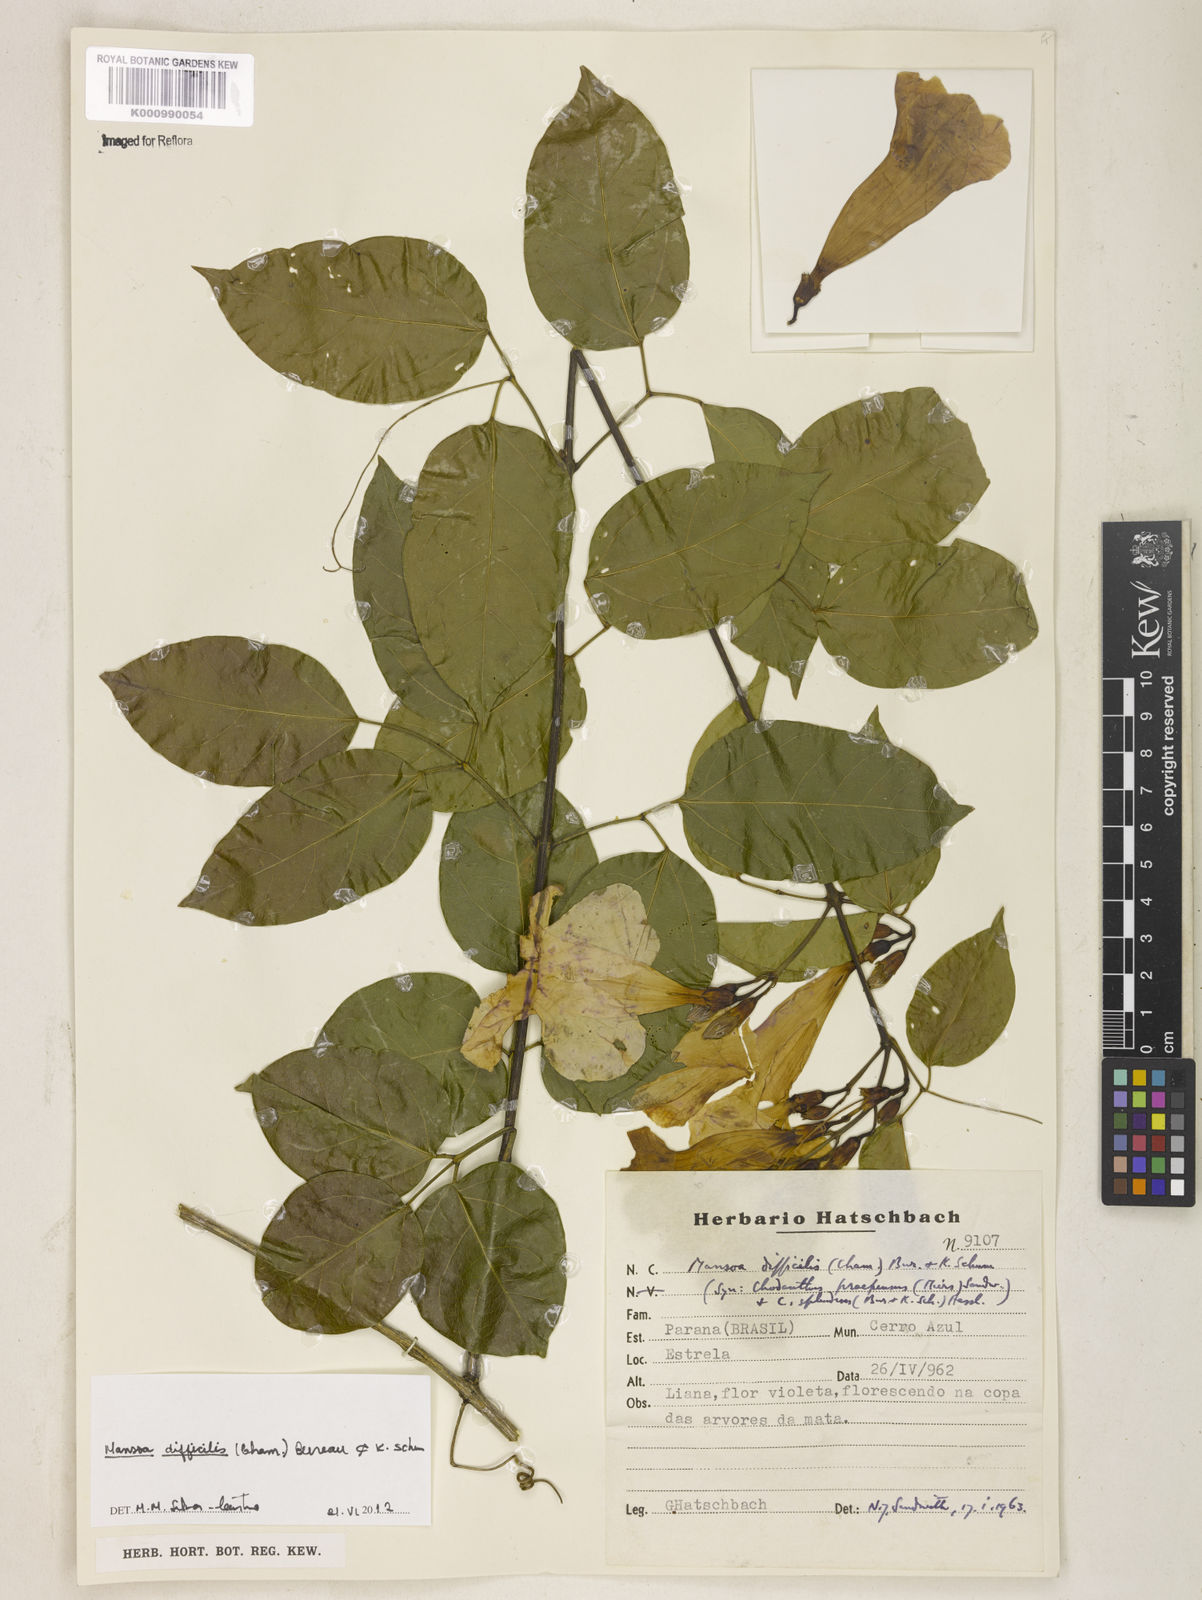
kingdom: Plantae
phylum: Tracheophyta
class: Magnoliopsida
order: Lamiales
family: Bignoniaceae
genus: Mansoa
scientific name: Mansoa difficilis
